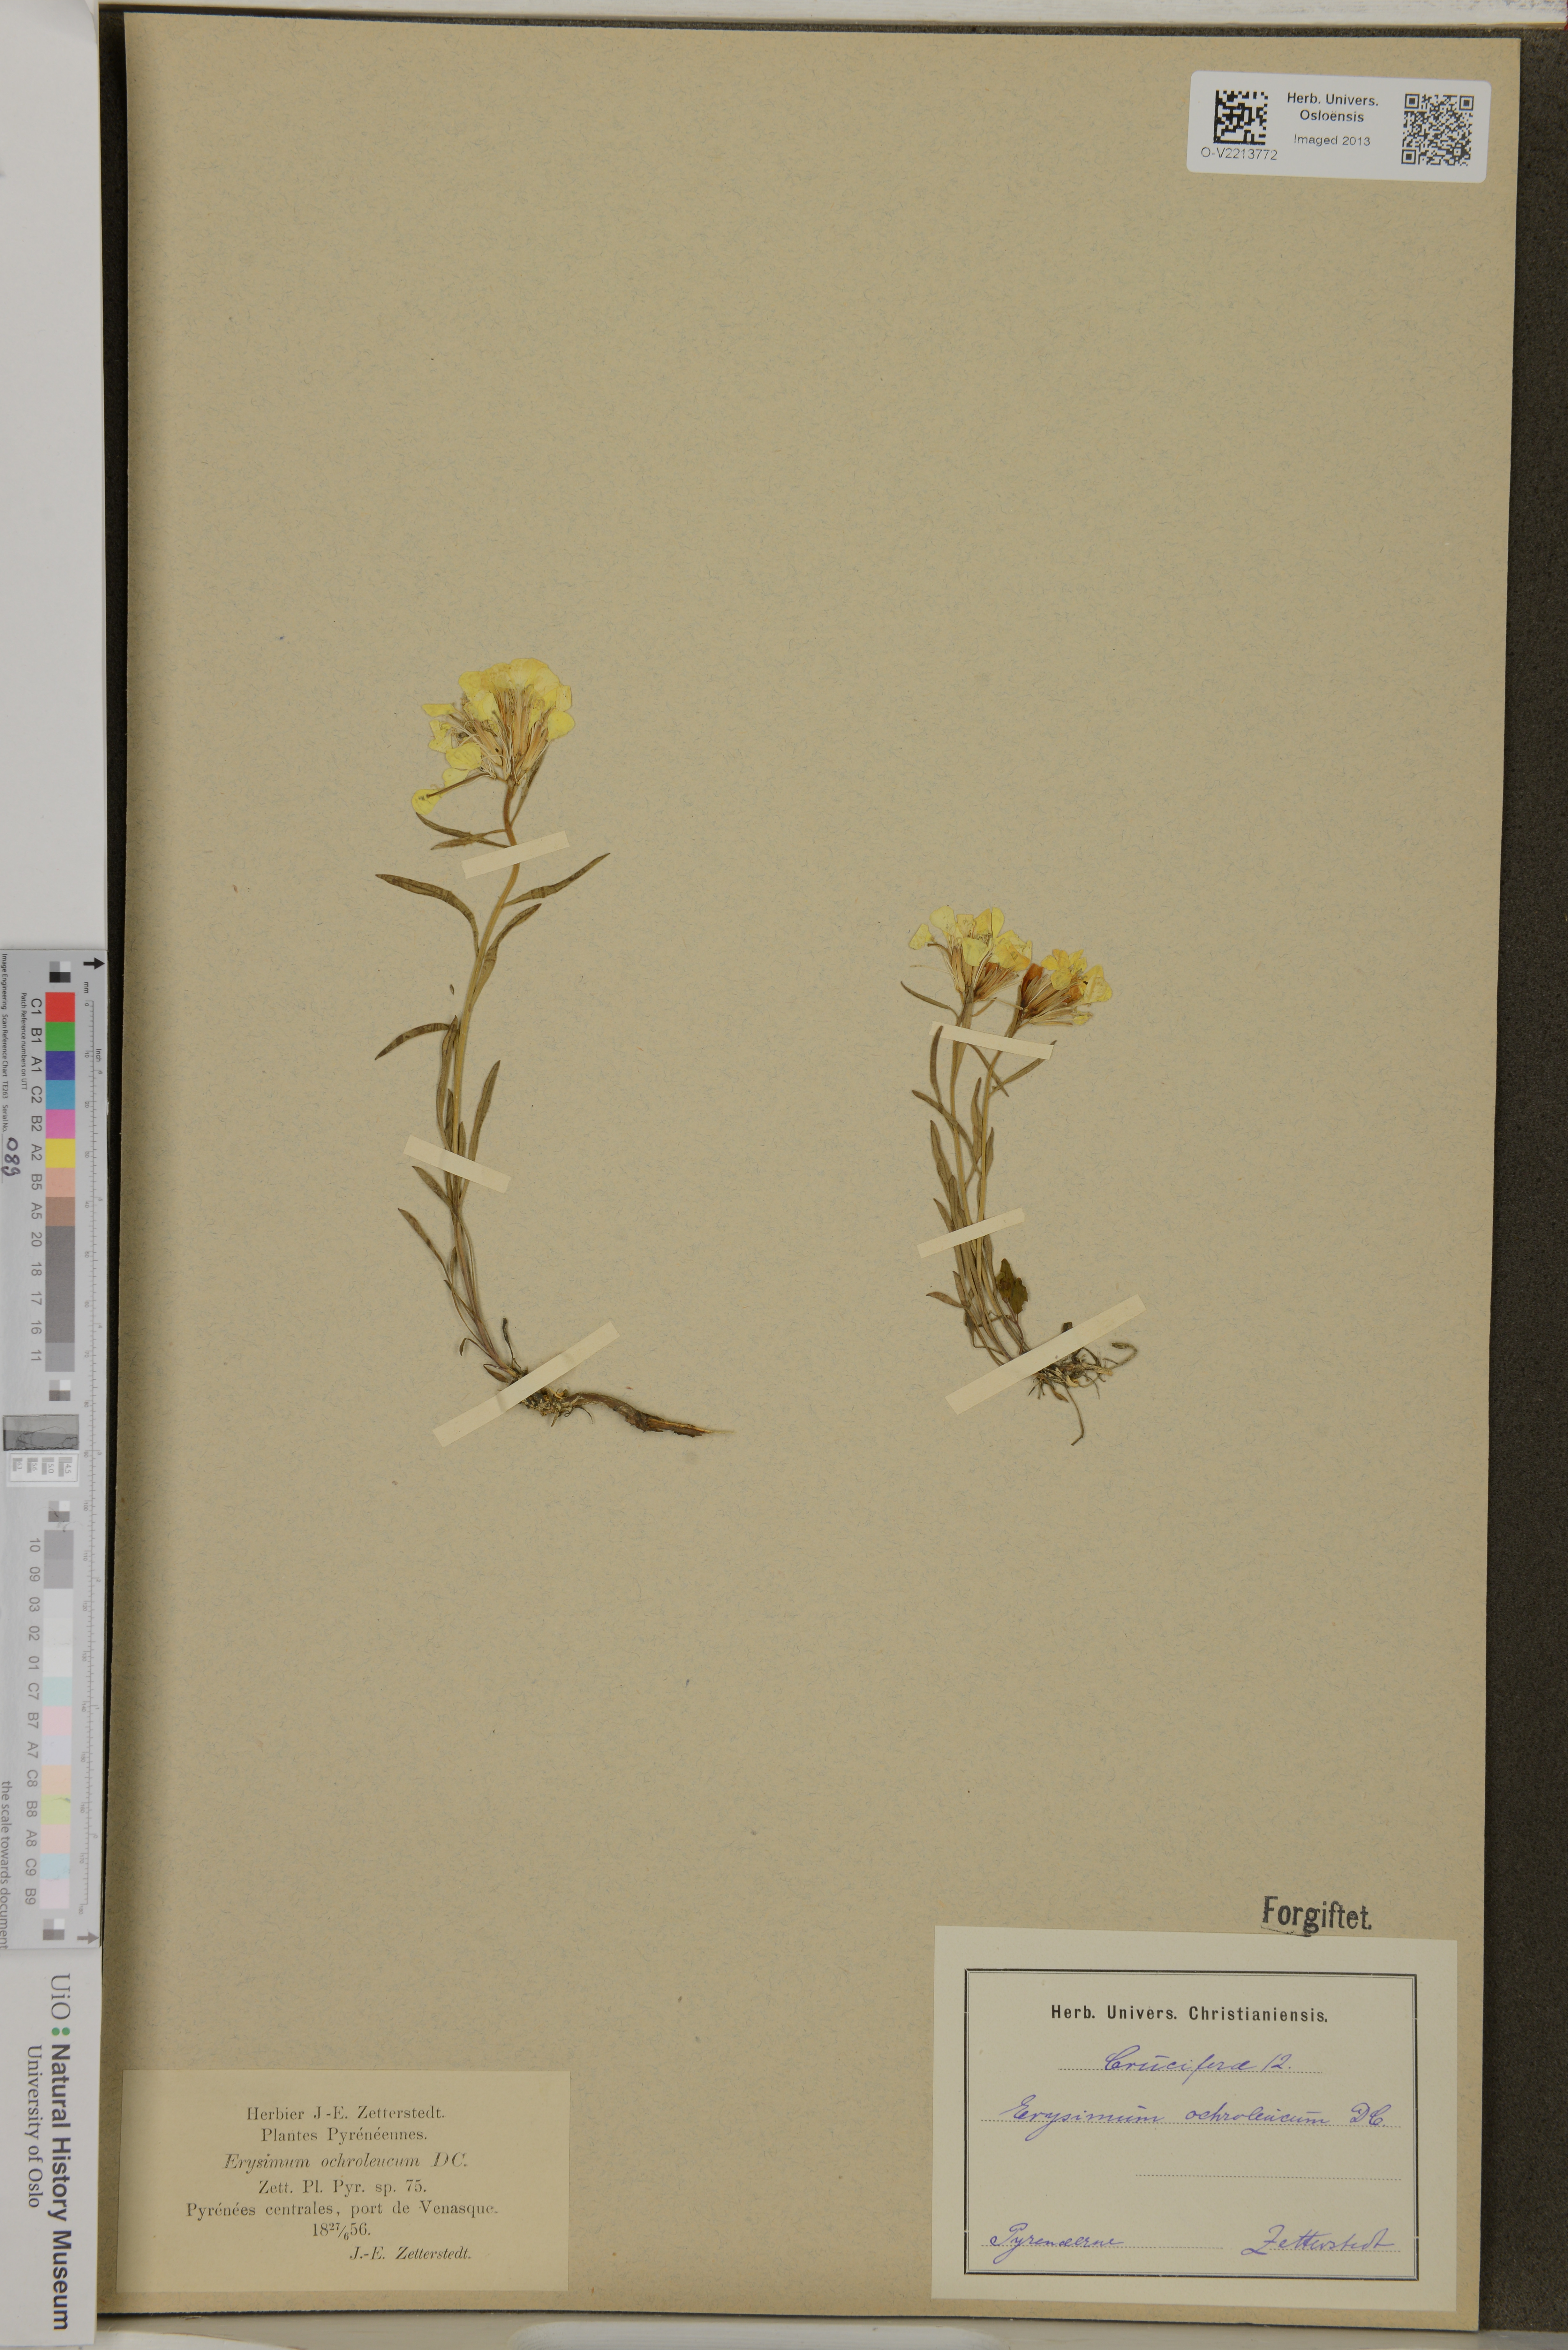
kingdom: Plantae
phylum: Tracheophyta
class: Magnoliopsida
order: Brassicales
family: Brassicaceae
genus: Erysimum
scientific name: Erysimum
